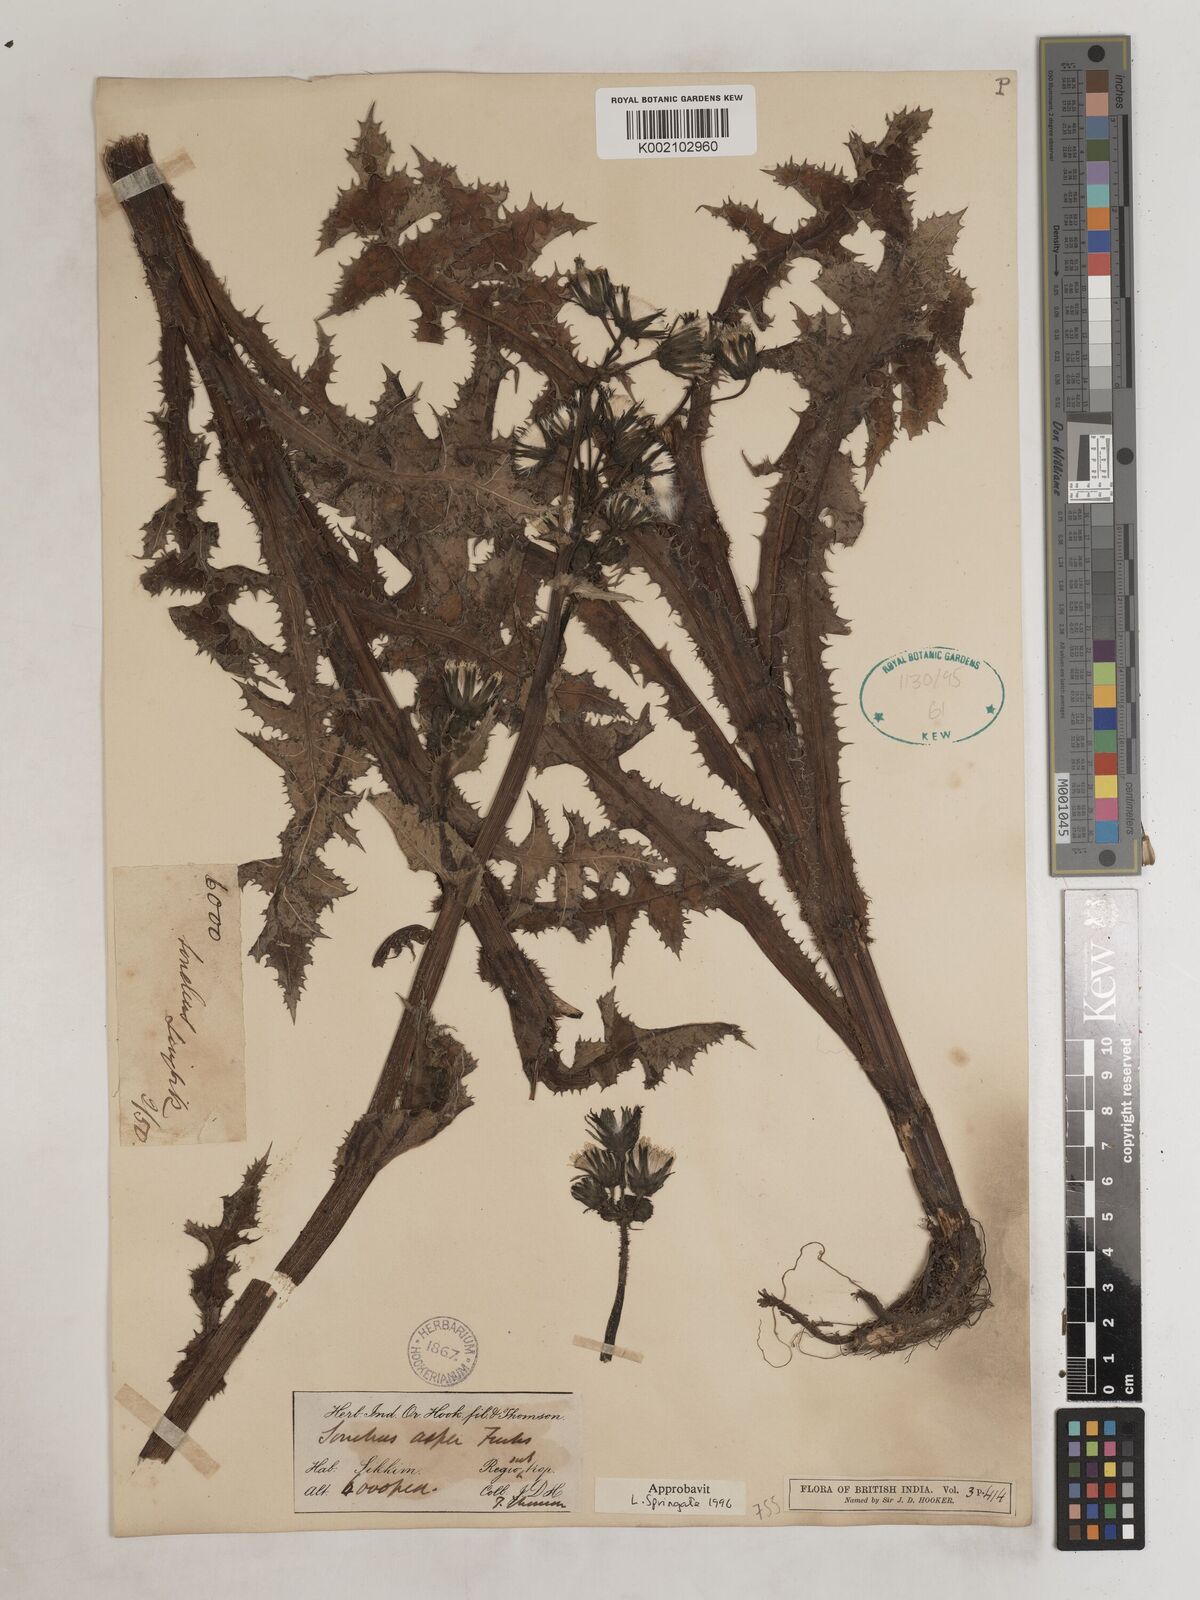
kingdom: Plantae
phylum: Tracheophyta
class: Magnoliopsida
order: Asterales
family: Asteraceae
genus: Sonchus
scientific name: Sonchus arvensis
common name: Perennial sow-thistle
